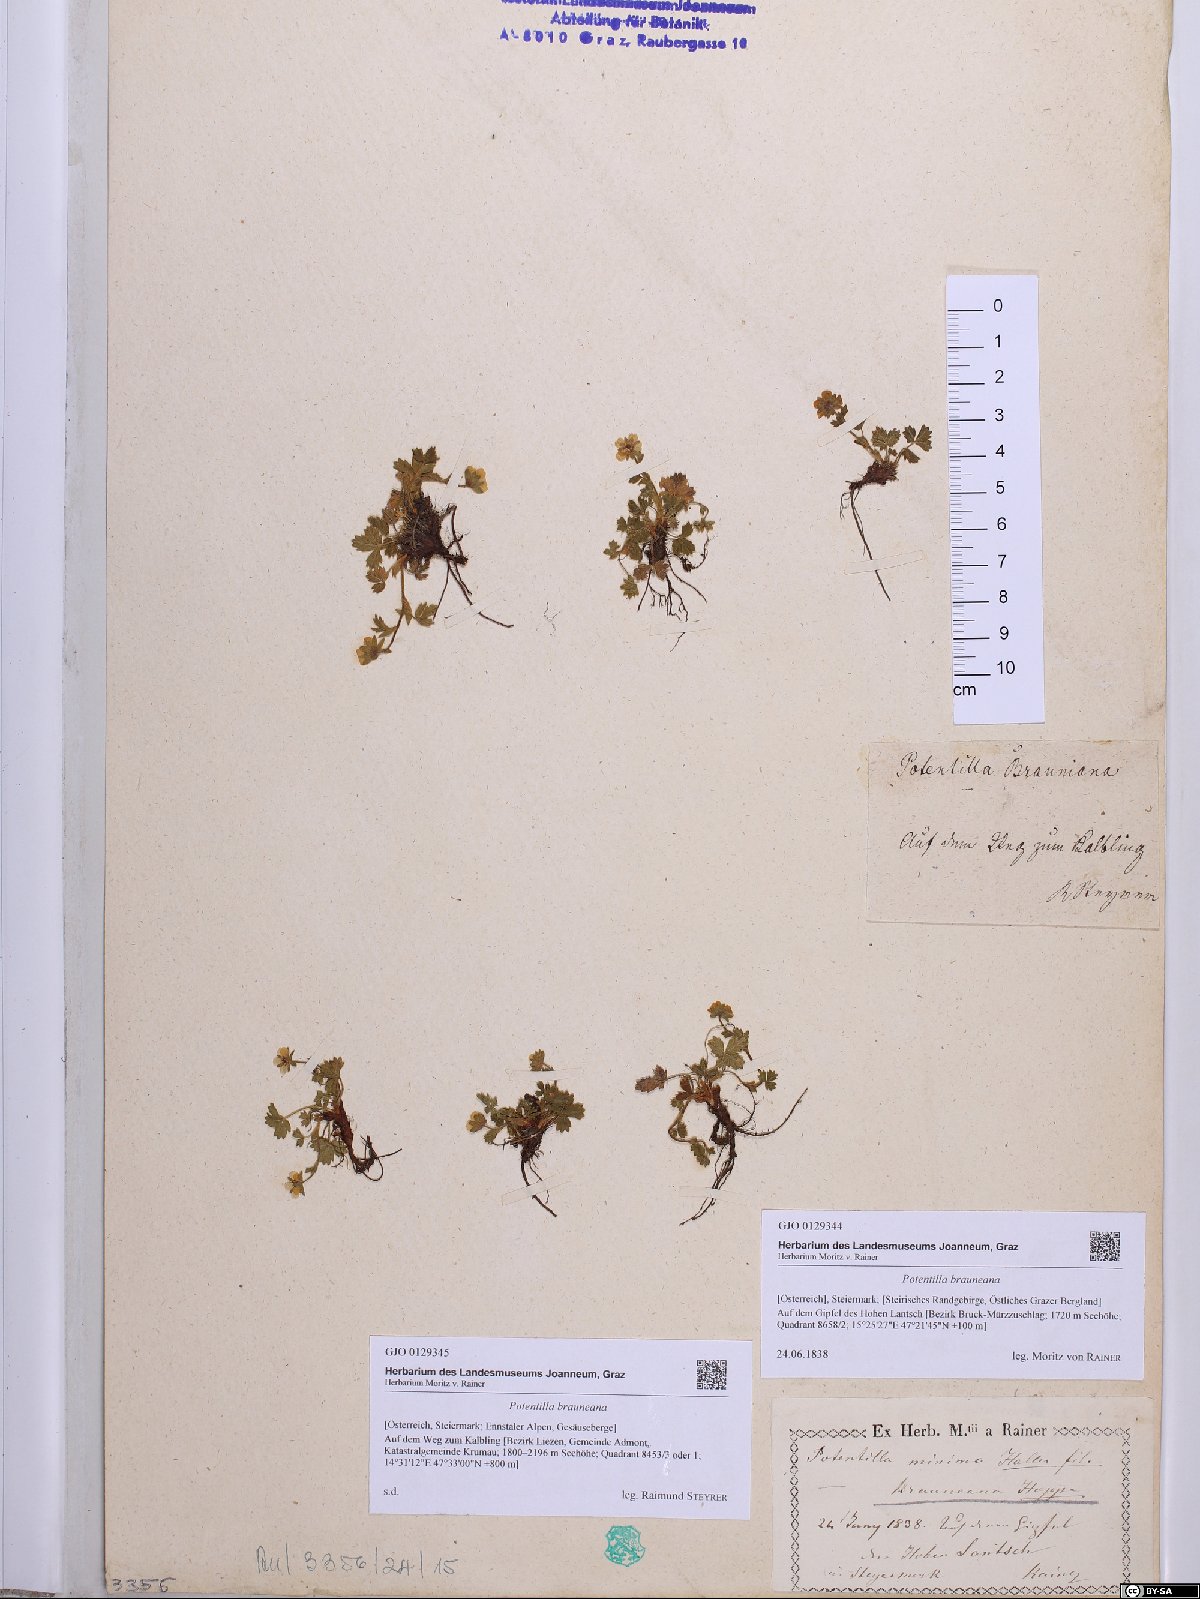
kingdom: Plantae
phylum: Tracheophyta
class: Magnoliopsida
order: Rosales
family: Rosaceae
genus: Potentilla
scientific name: Potentilla brauneana
